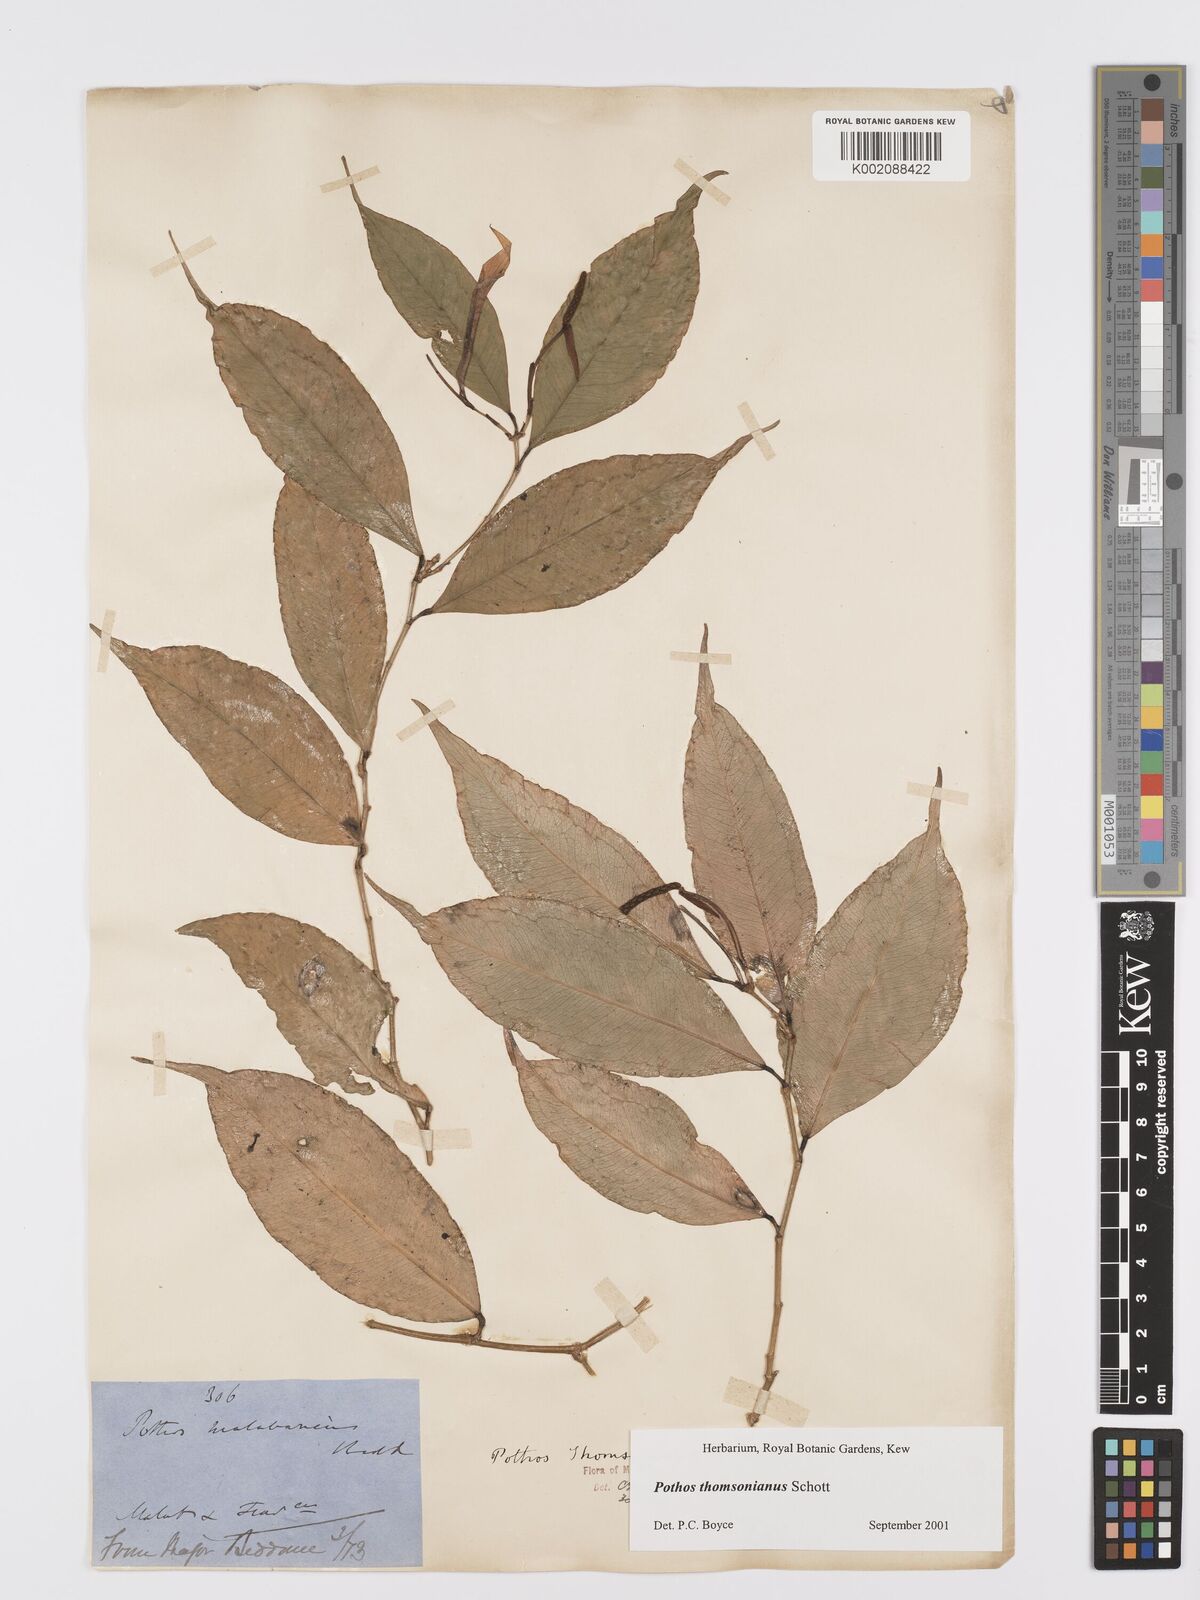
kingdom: Plantae
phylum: Tracheophyta
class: Liliopsida
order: Alismatales
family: Araceae
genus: Pothos
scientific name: Pothos thomsonianus
